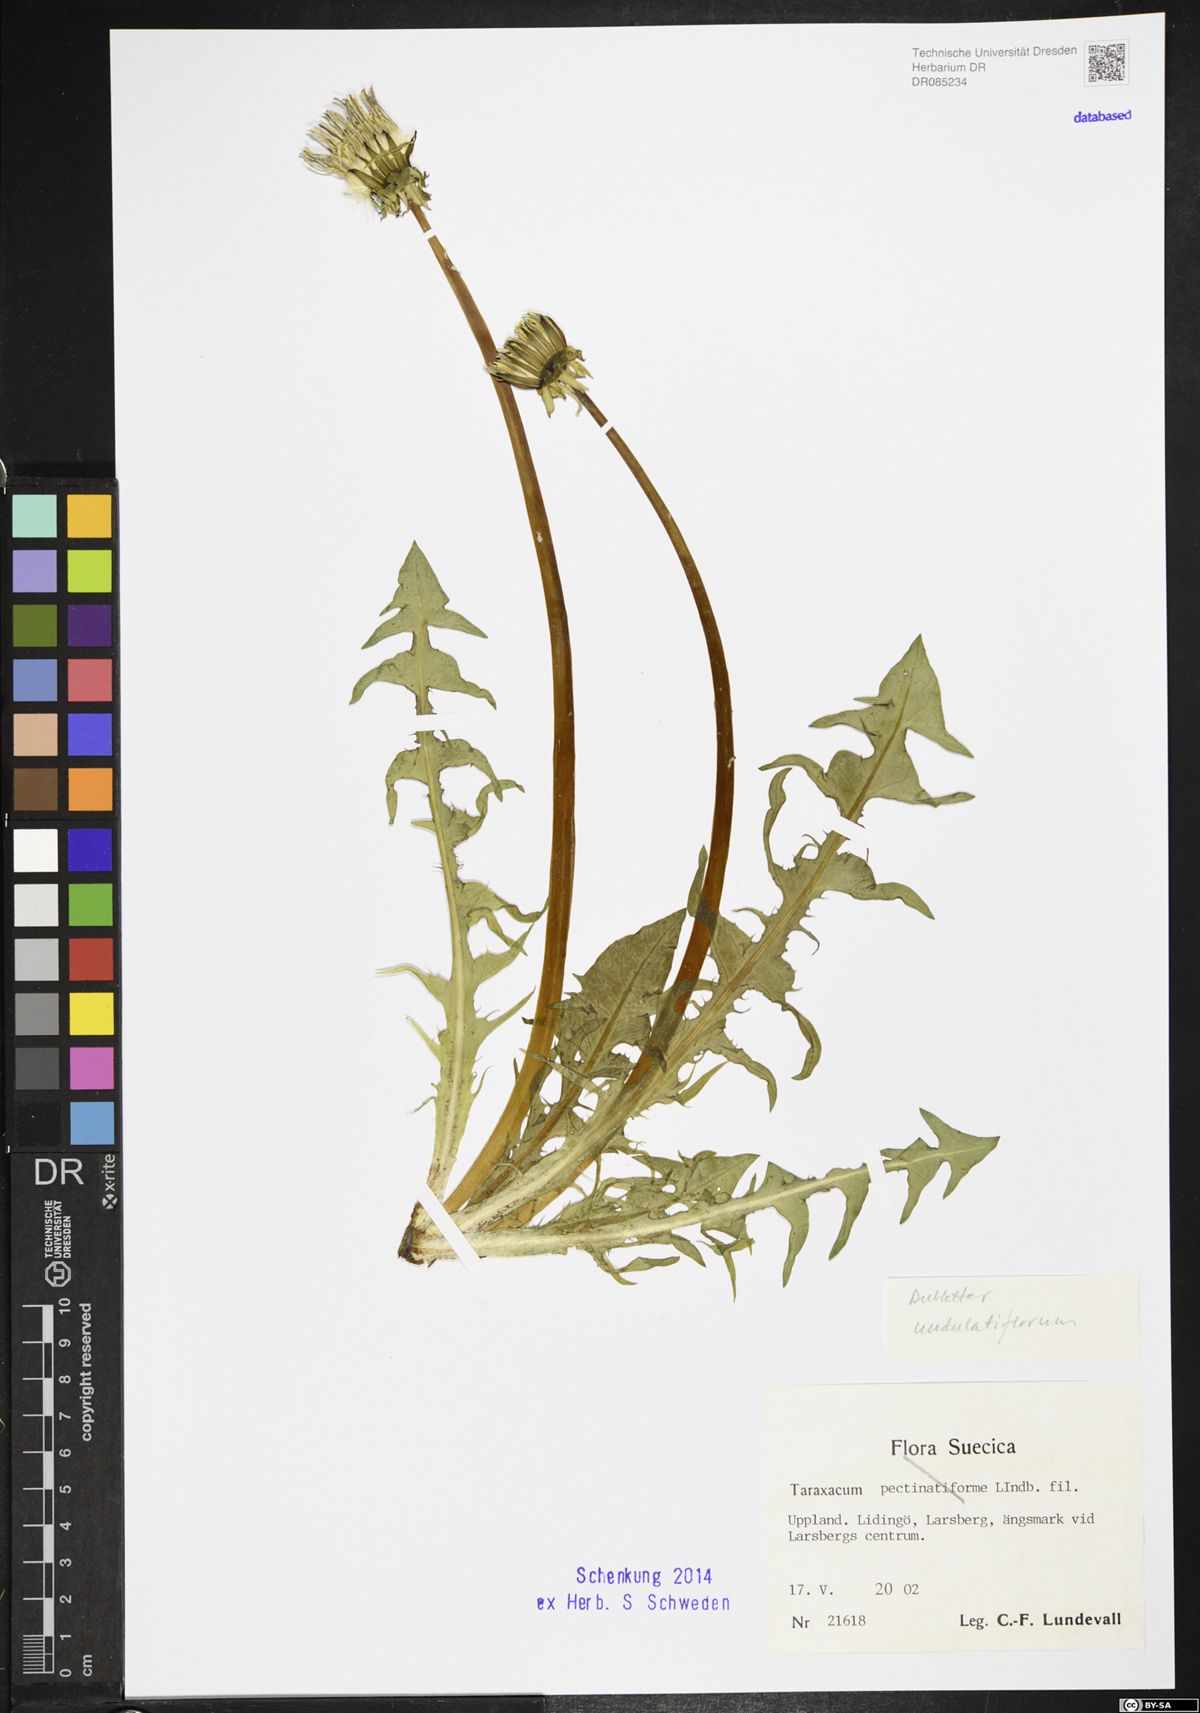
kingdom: Plantae
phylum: Tracheophyta
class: Magnoliopsida
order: Asterales
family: Asteraceae
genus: Taraxacum
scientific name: Taraxacum undulatiflorum
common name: Dull-leaved dandelion
